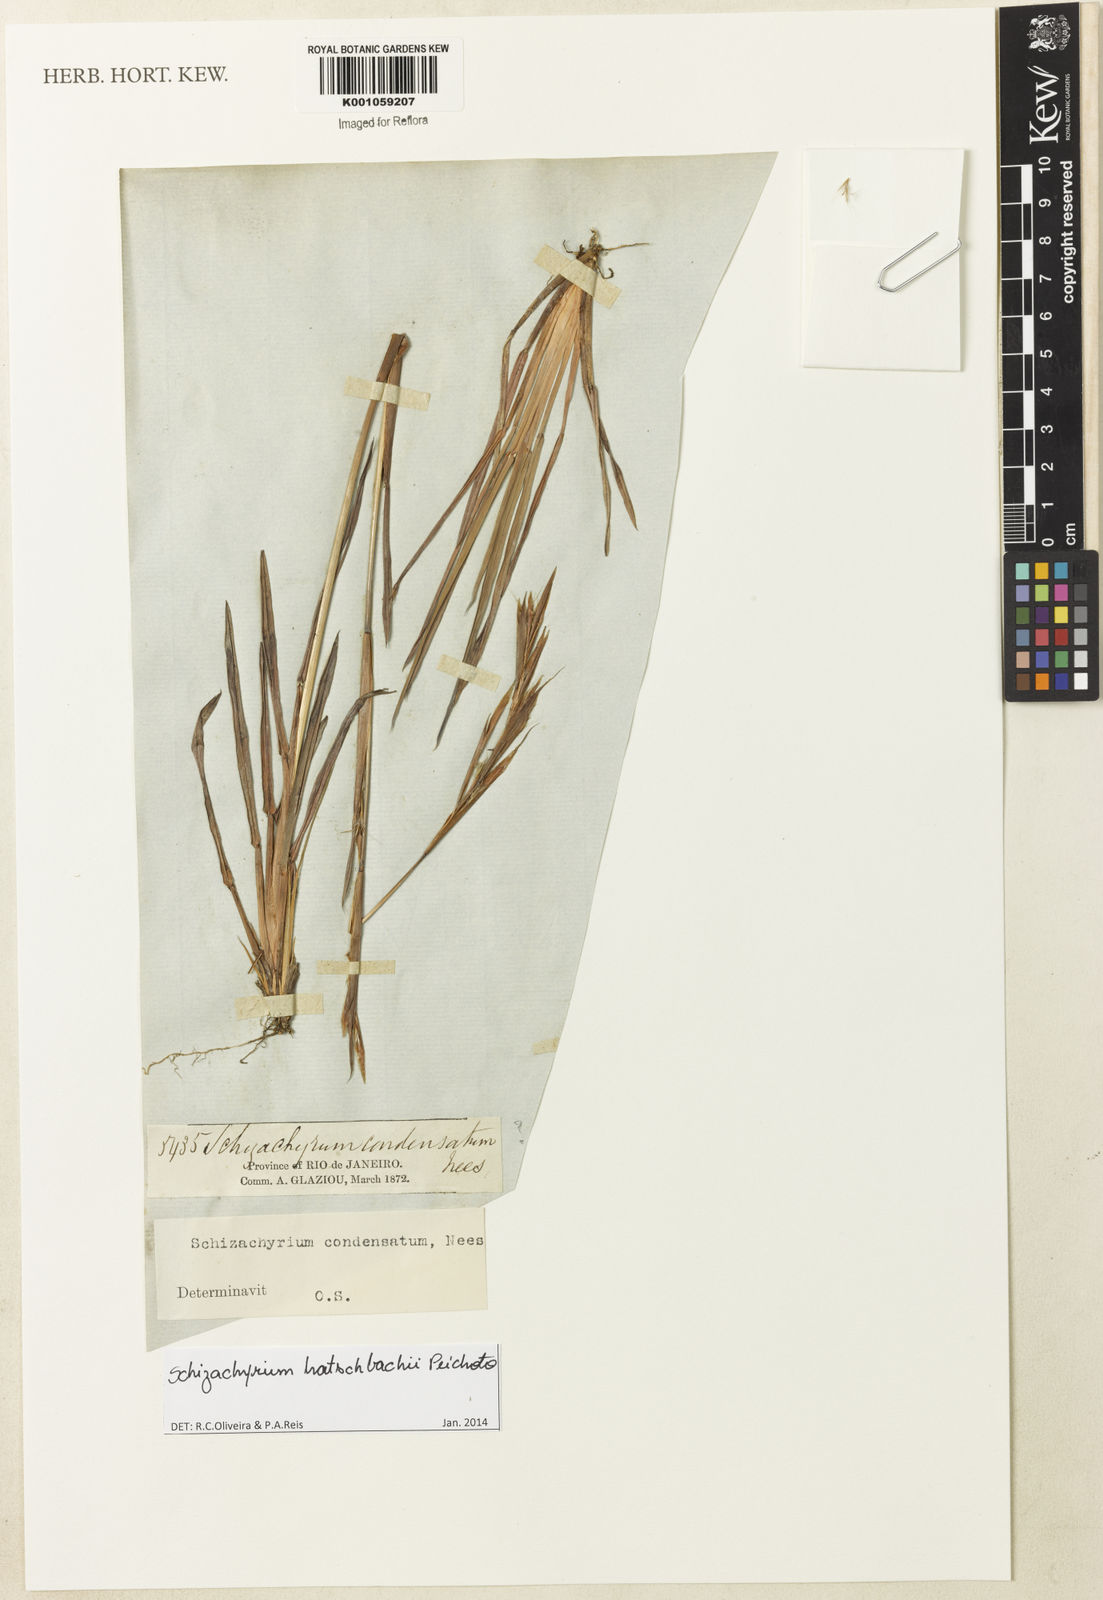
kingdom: Plantae
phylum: Tracheophyta
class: Liliopsida
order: Poales
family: Poaceae
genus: Schizachyrium
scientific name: Schizachyrium hatschbachii
